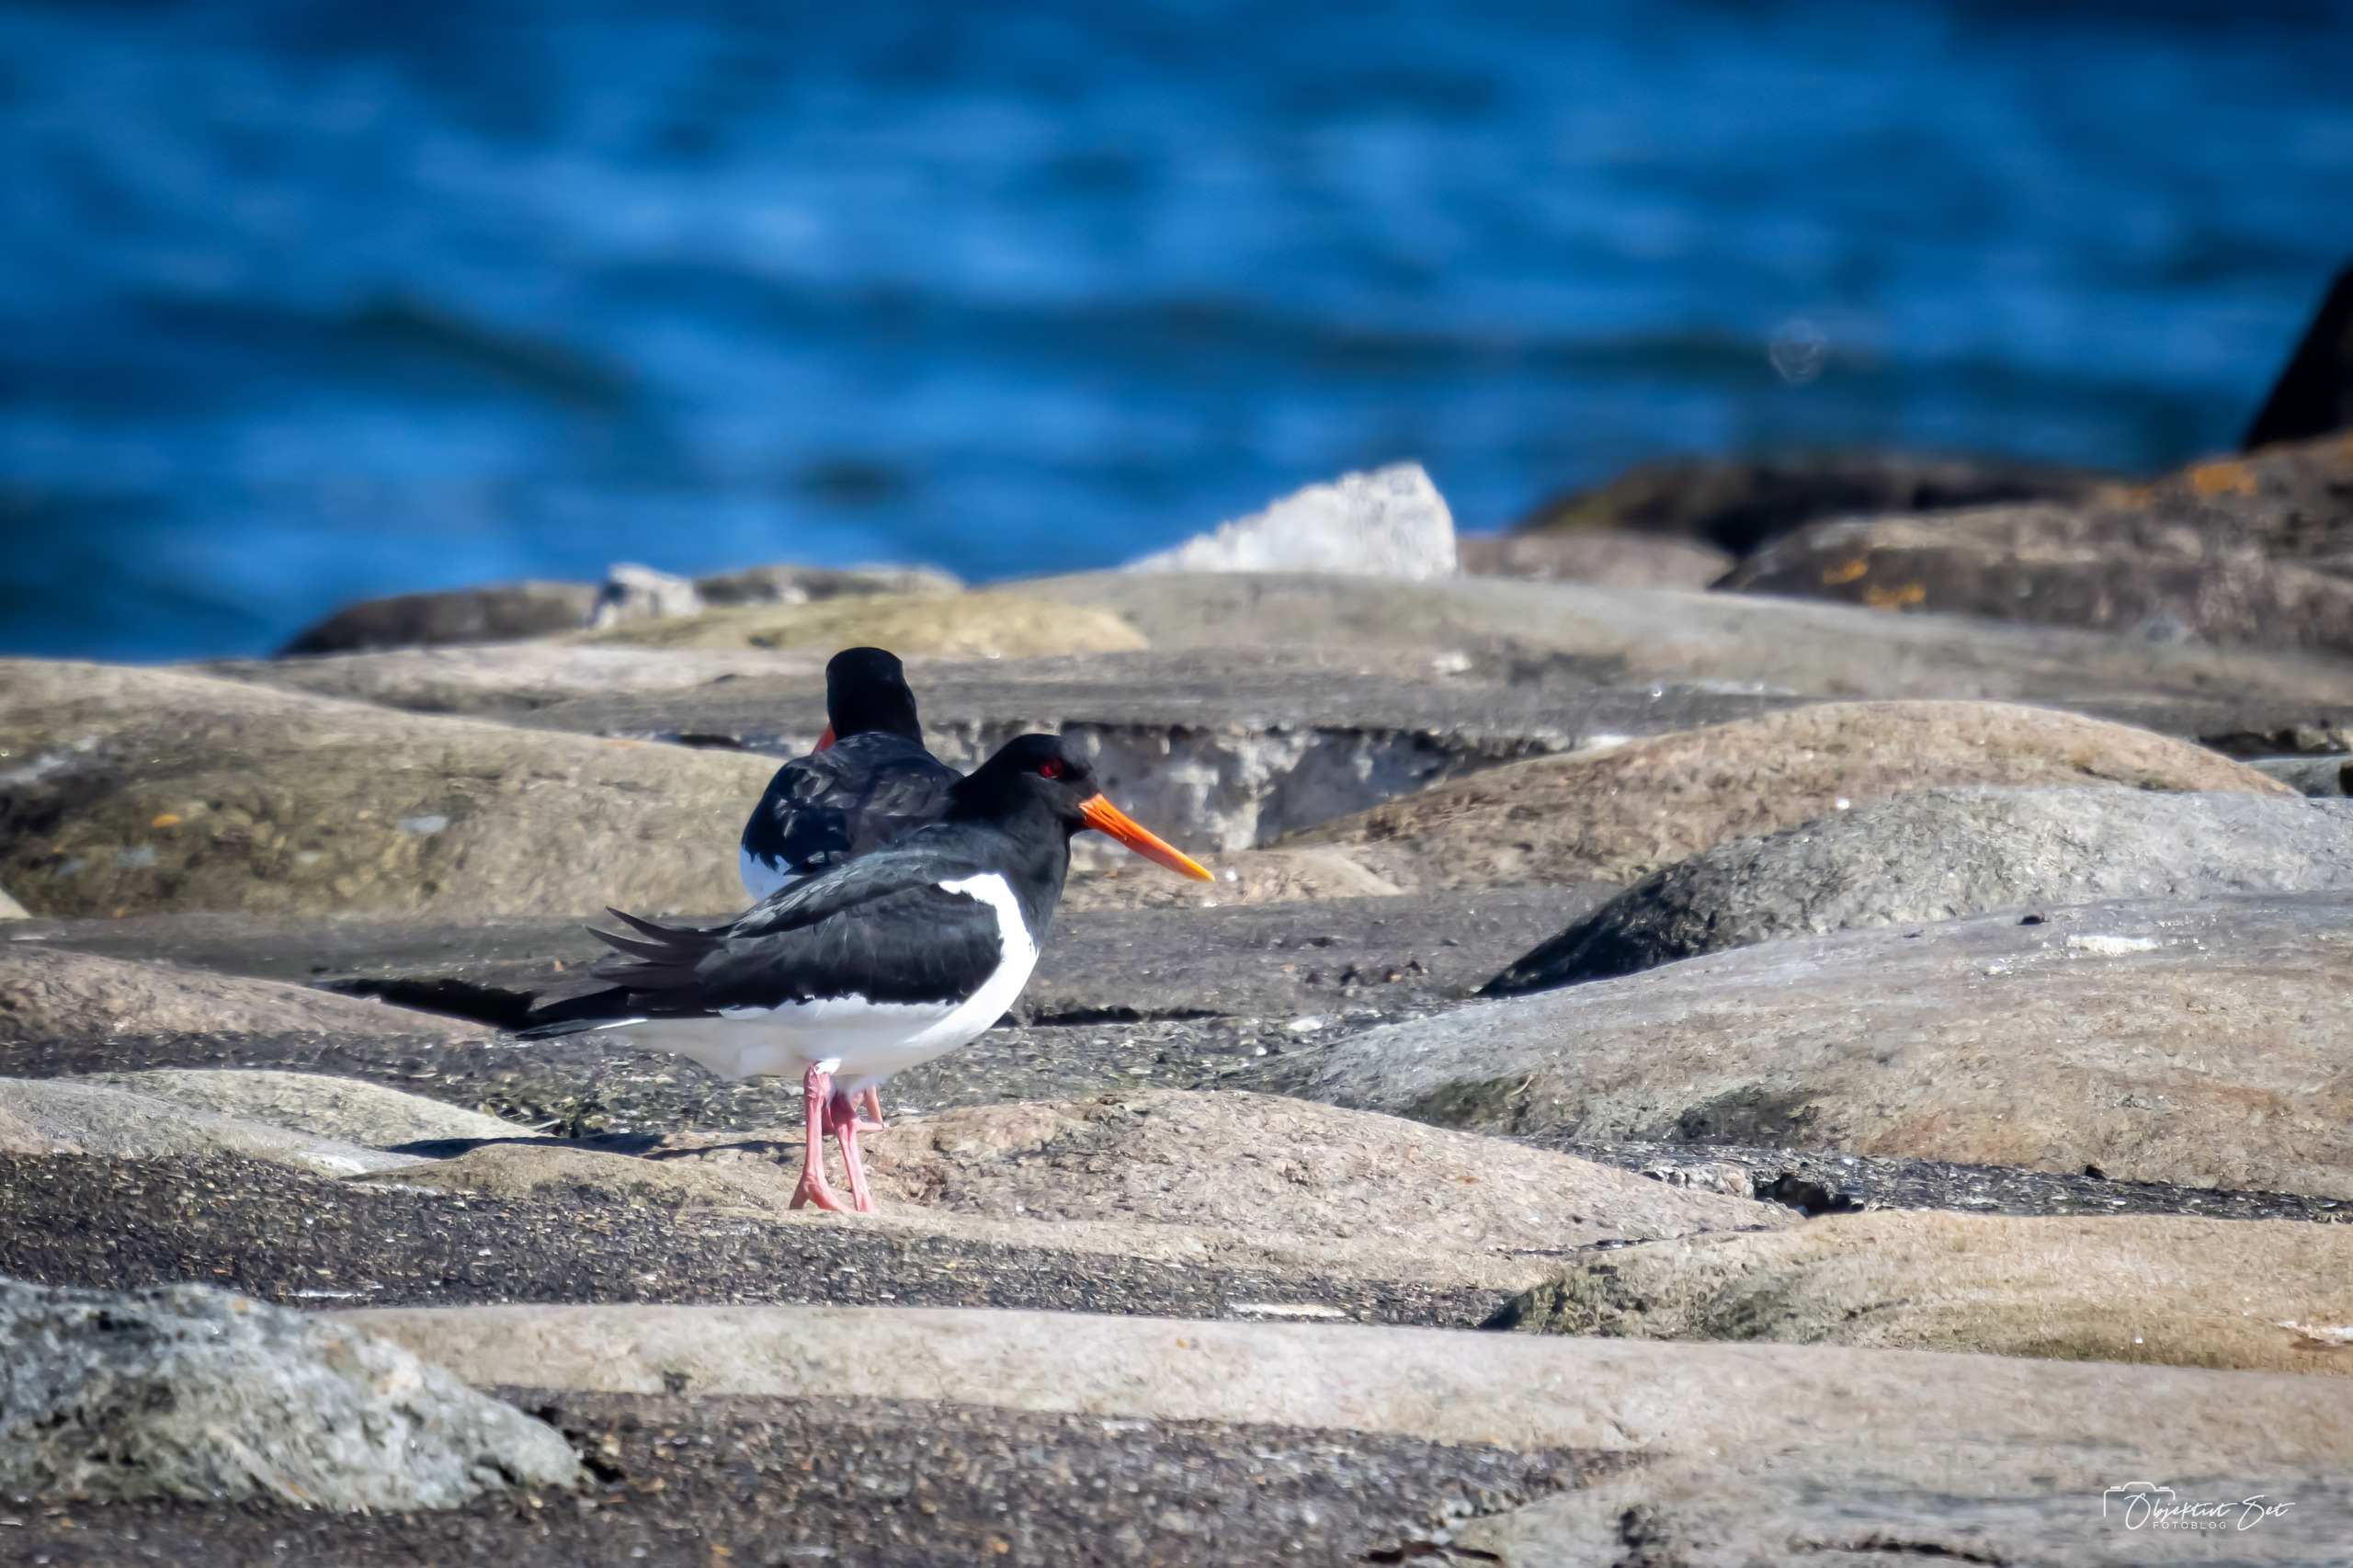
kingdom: Animalia
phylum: Chordata
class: Aves
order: Charadriiformes
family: Haematopodidae
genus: Haematopus
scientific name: Haematopus ostralegus
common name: Strandskade
